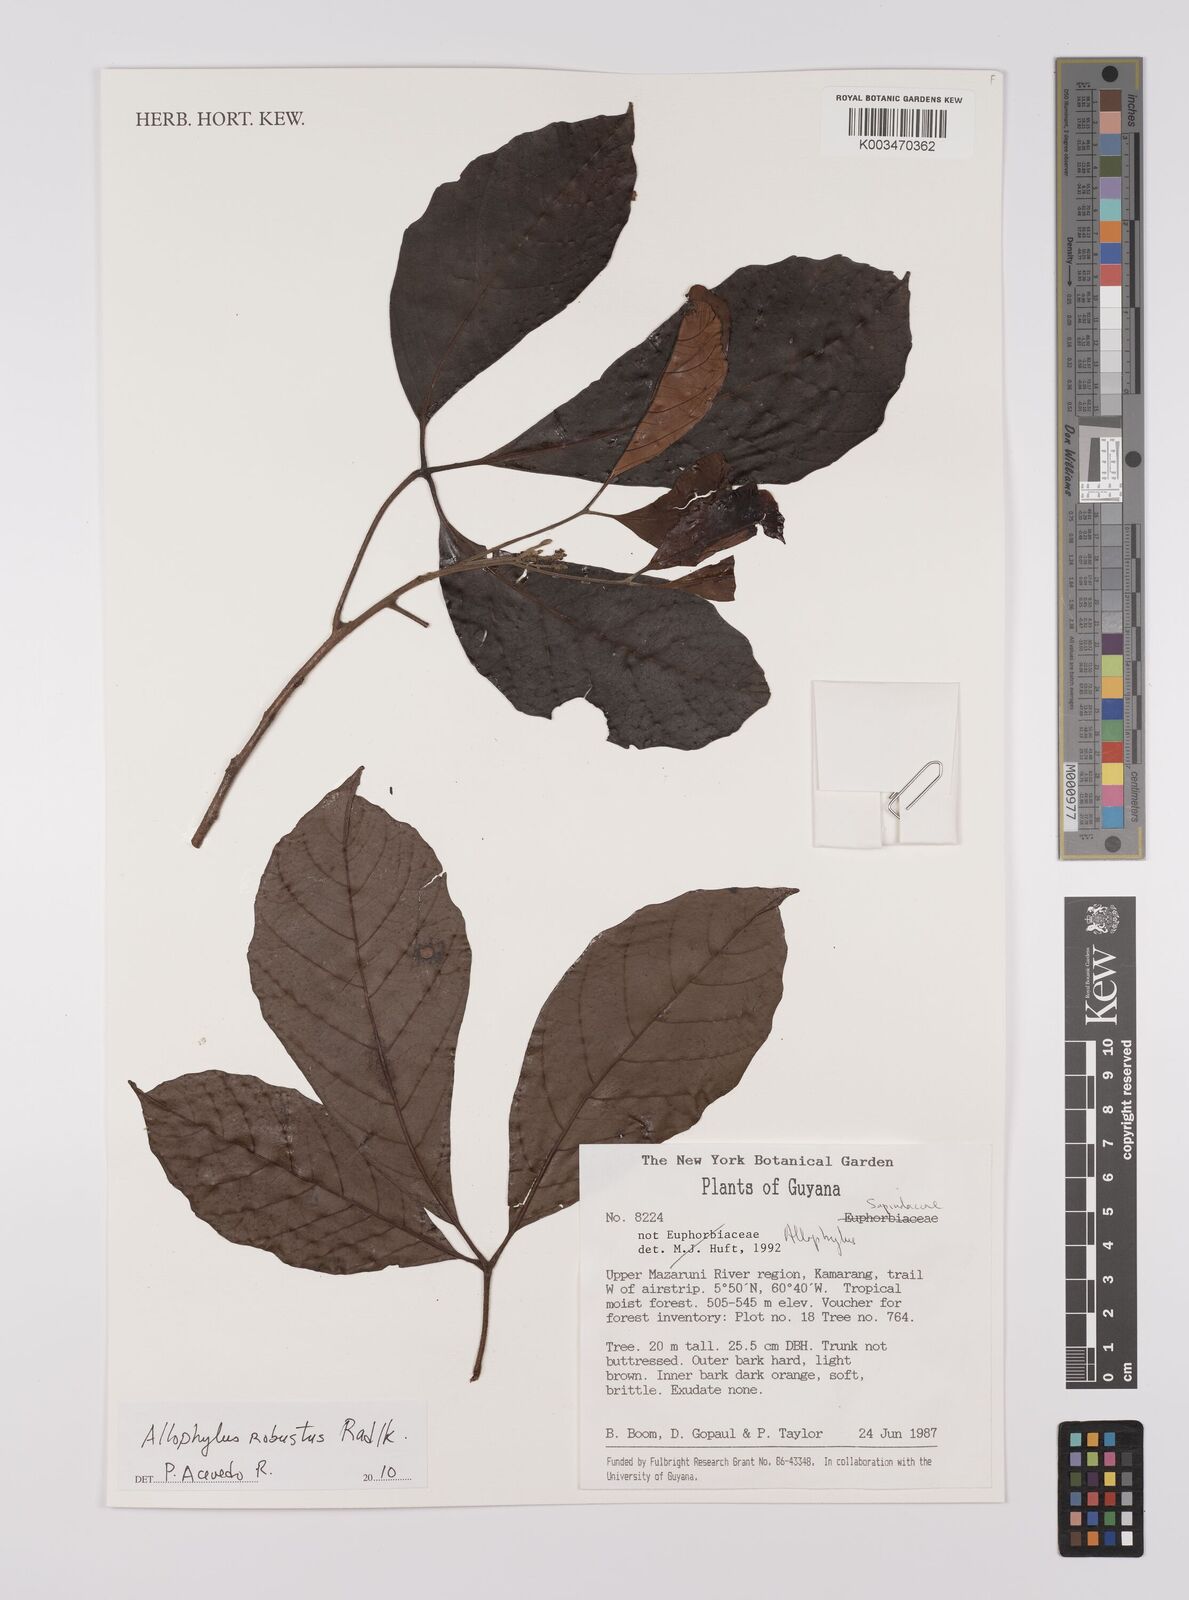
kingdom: Plantae
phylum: Tracheophyta
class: Magnoliopsida
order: Sapindales
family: Sapindaceae
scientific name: Sapindaceae
